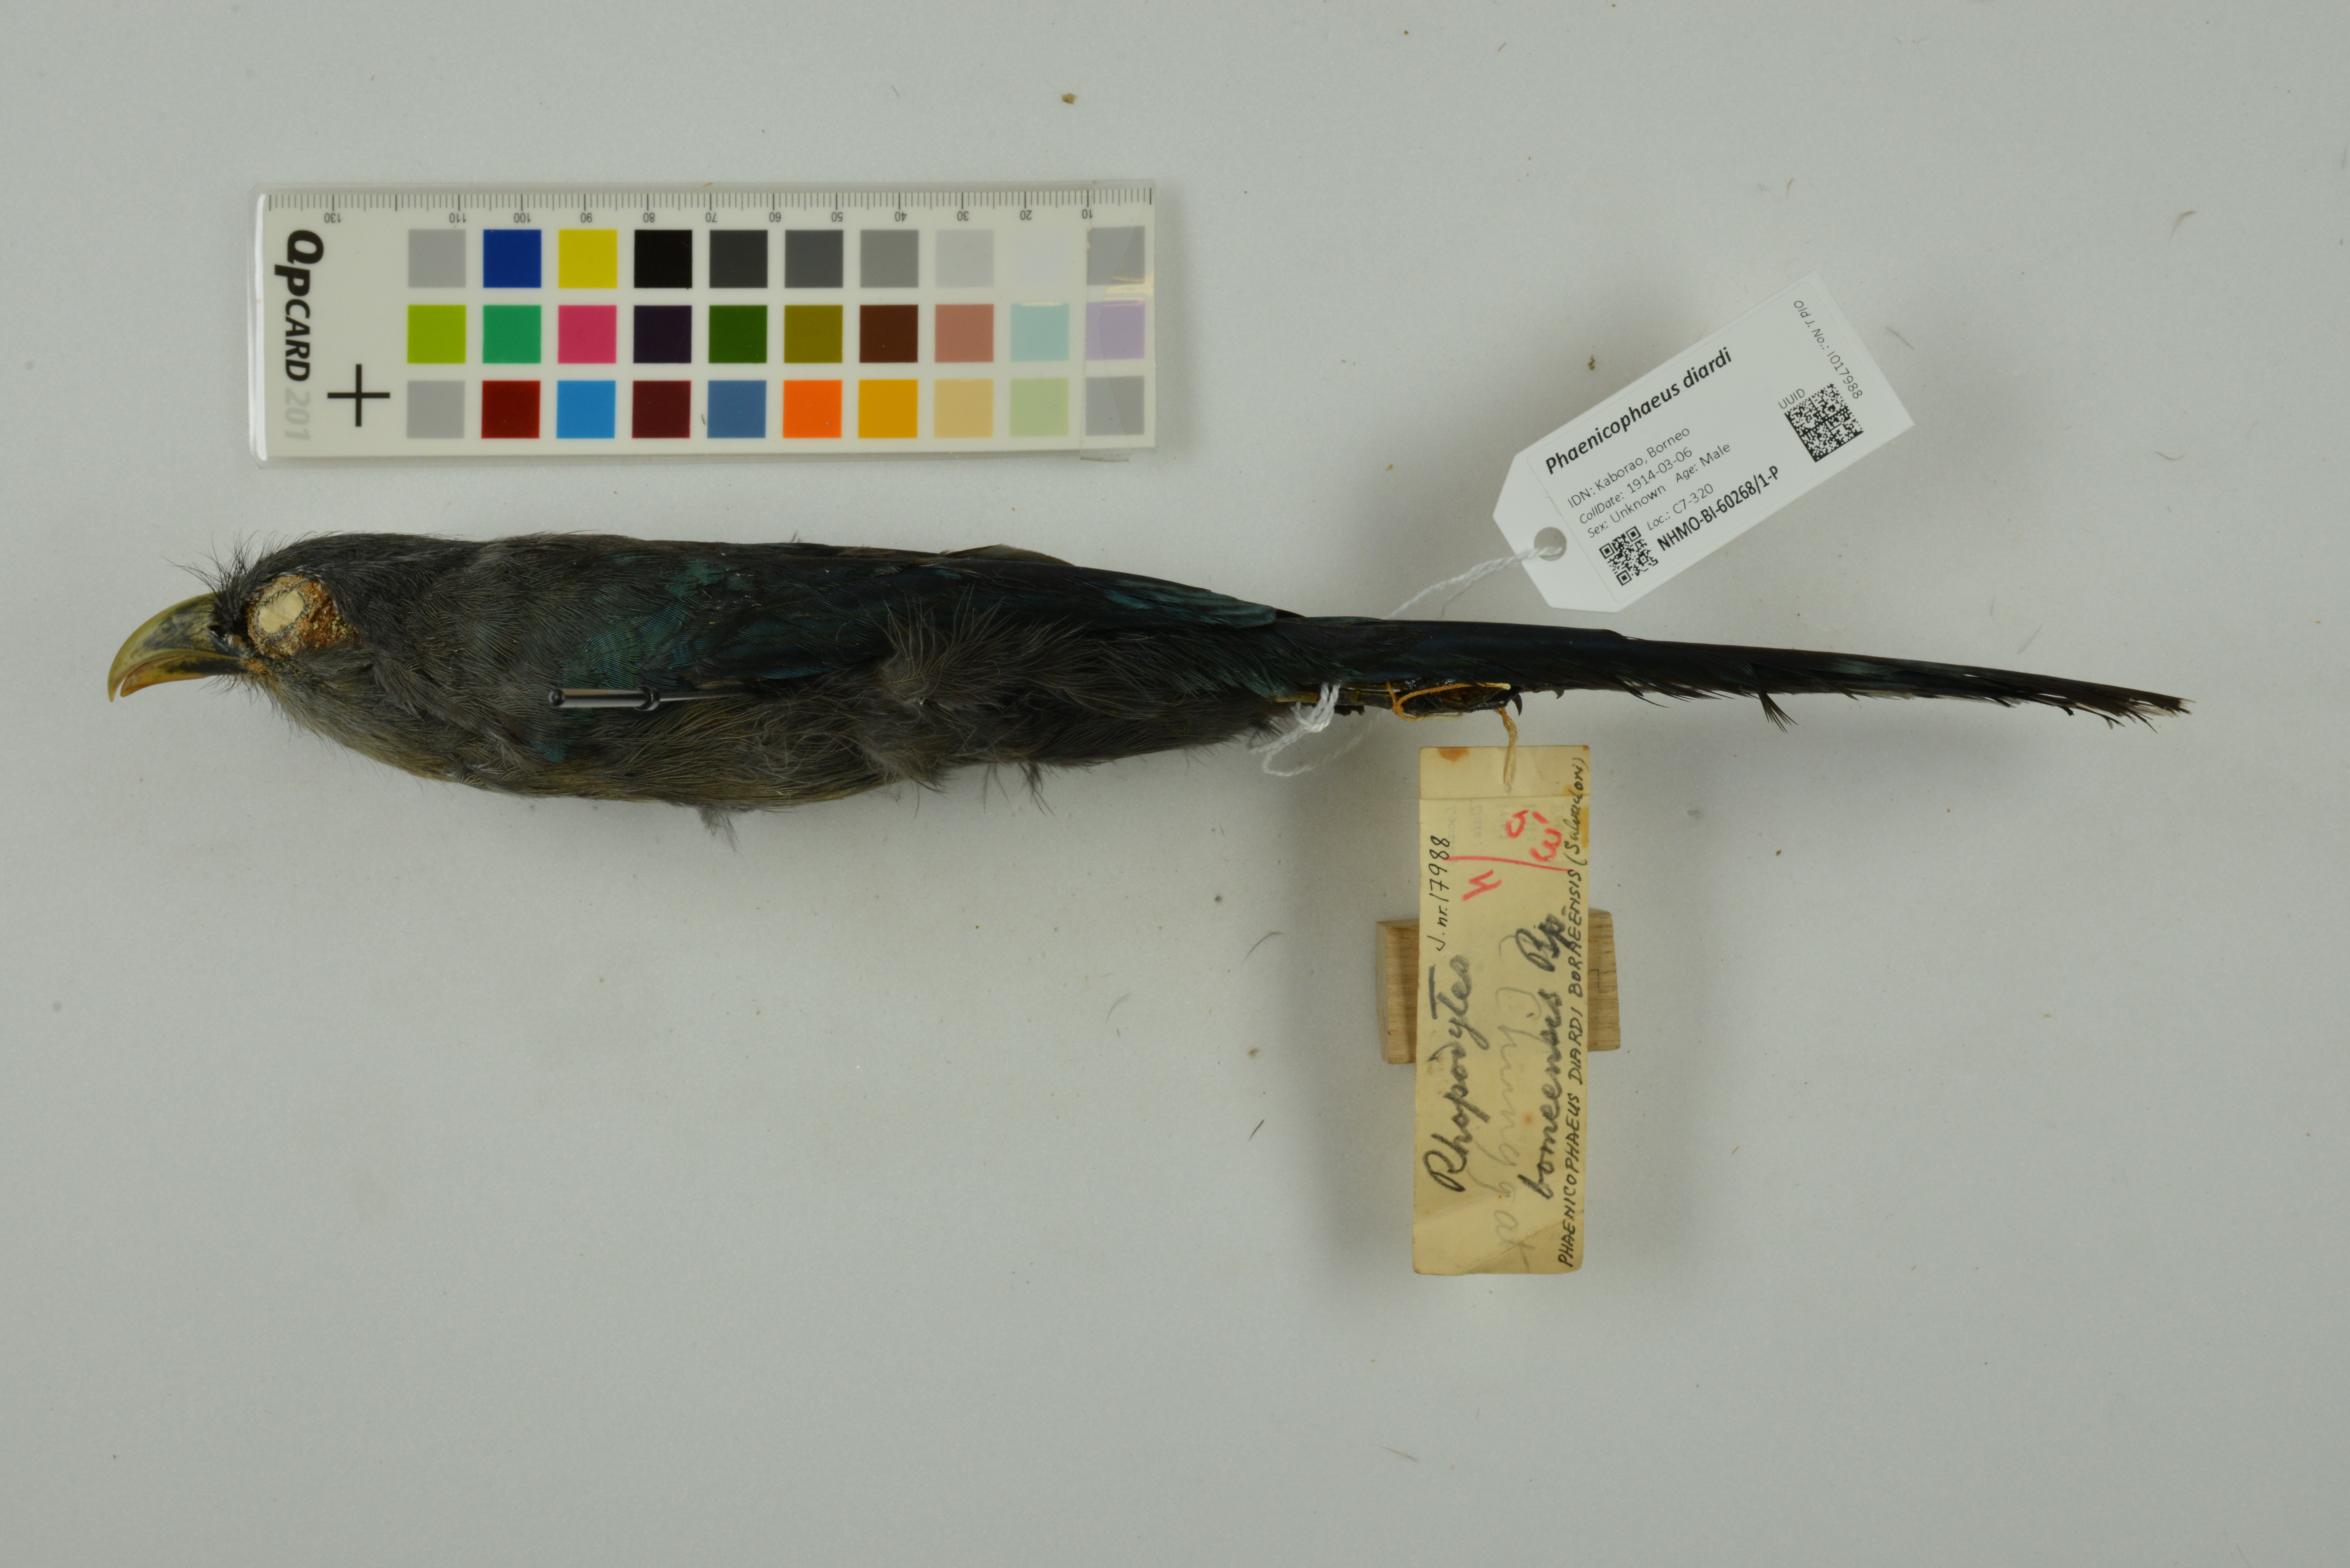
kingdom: Animalia
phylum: Chordata
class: Aves
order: Cuculiformes
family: Cuculidae
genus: Rhopodytes
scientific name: Rhopodytes diardi
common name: Lesser green-billed malcoha
